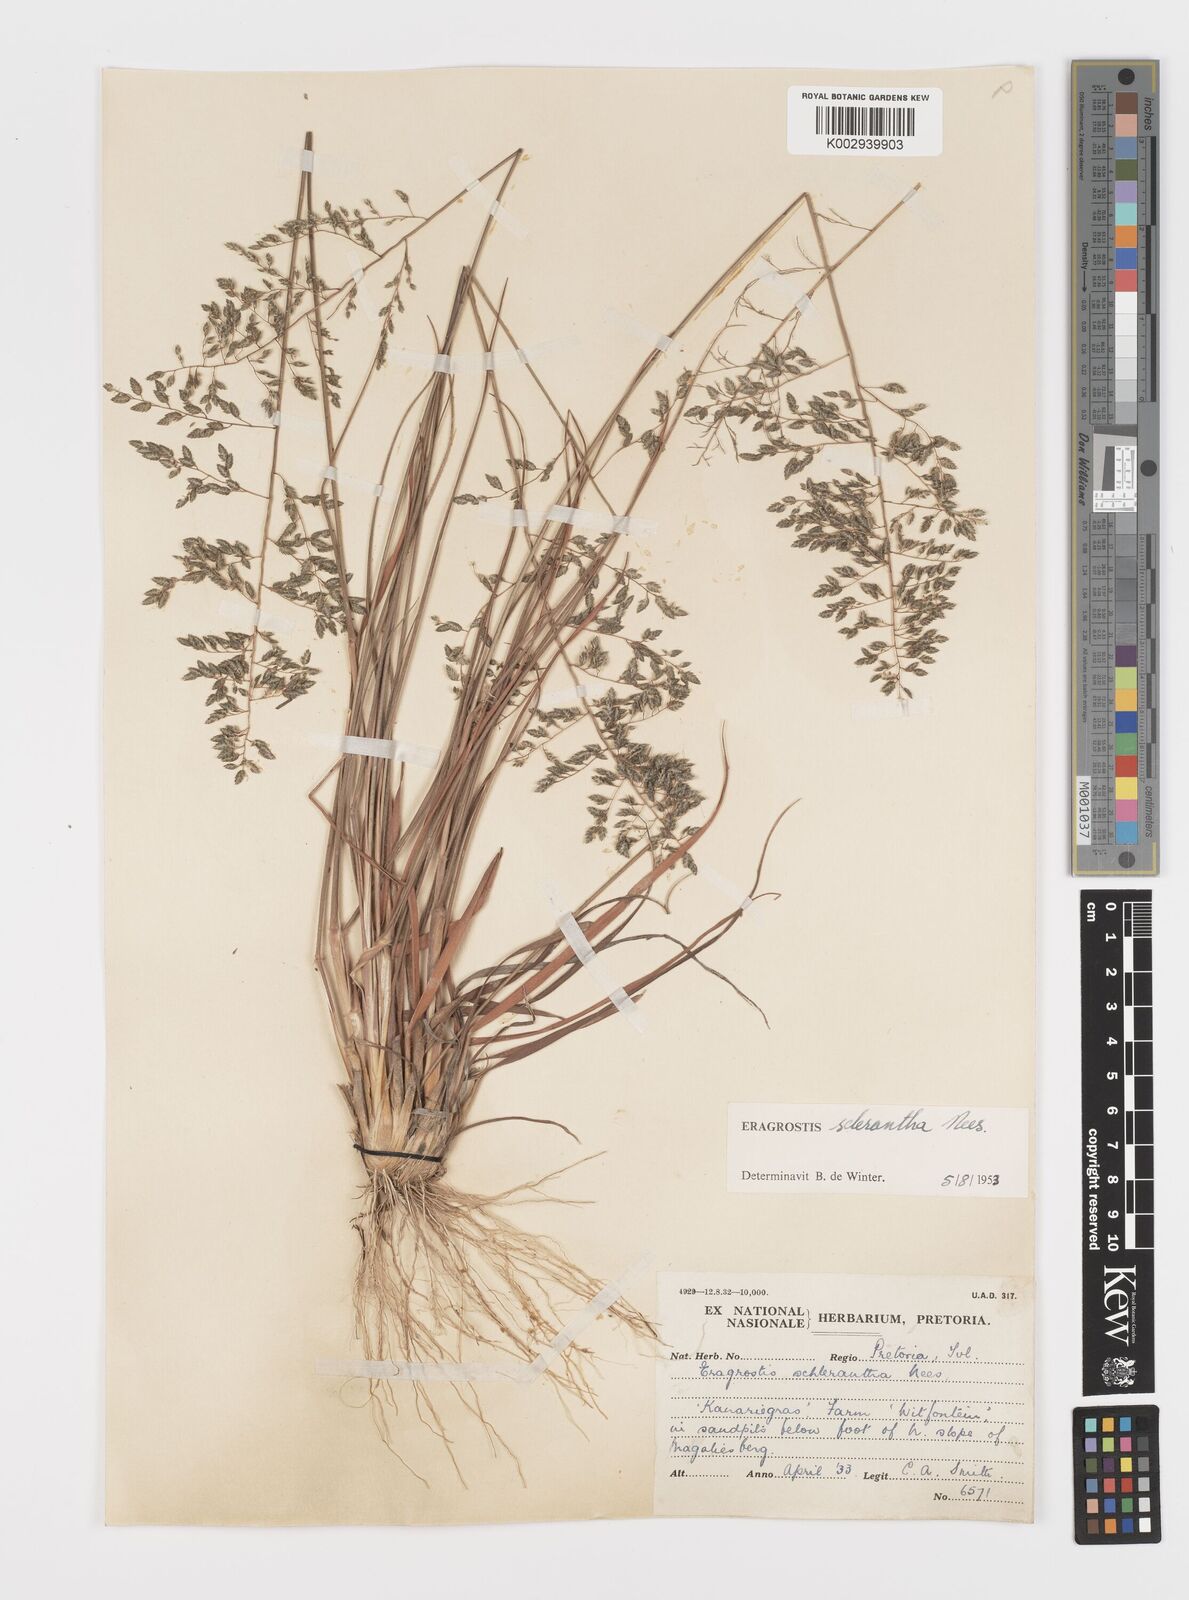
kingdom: Plantae
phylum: Tracheophyta
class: Liliopsida
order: Poales
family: Poaceae
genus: Eragrostis
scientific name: Eragrostis sclerantha
